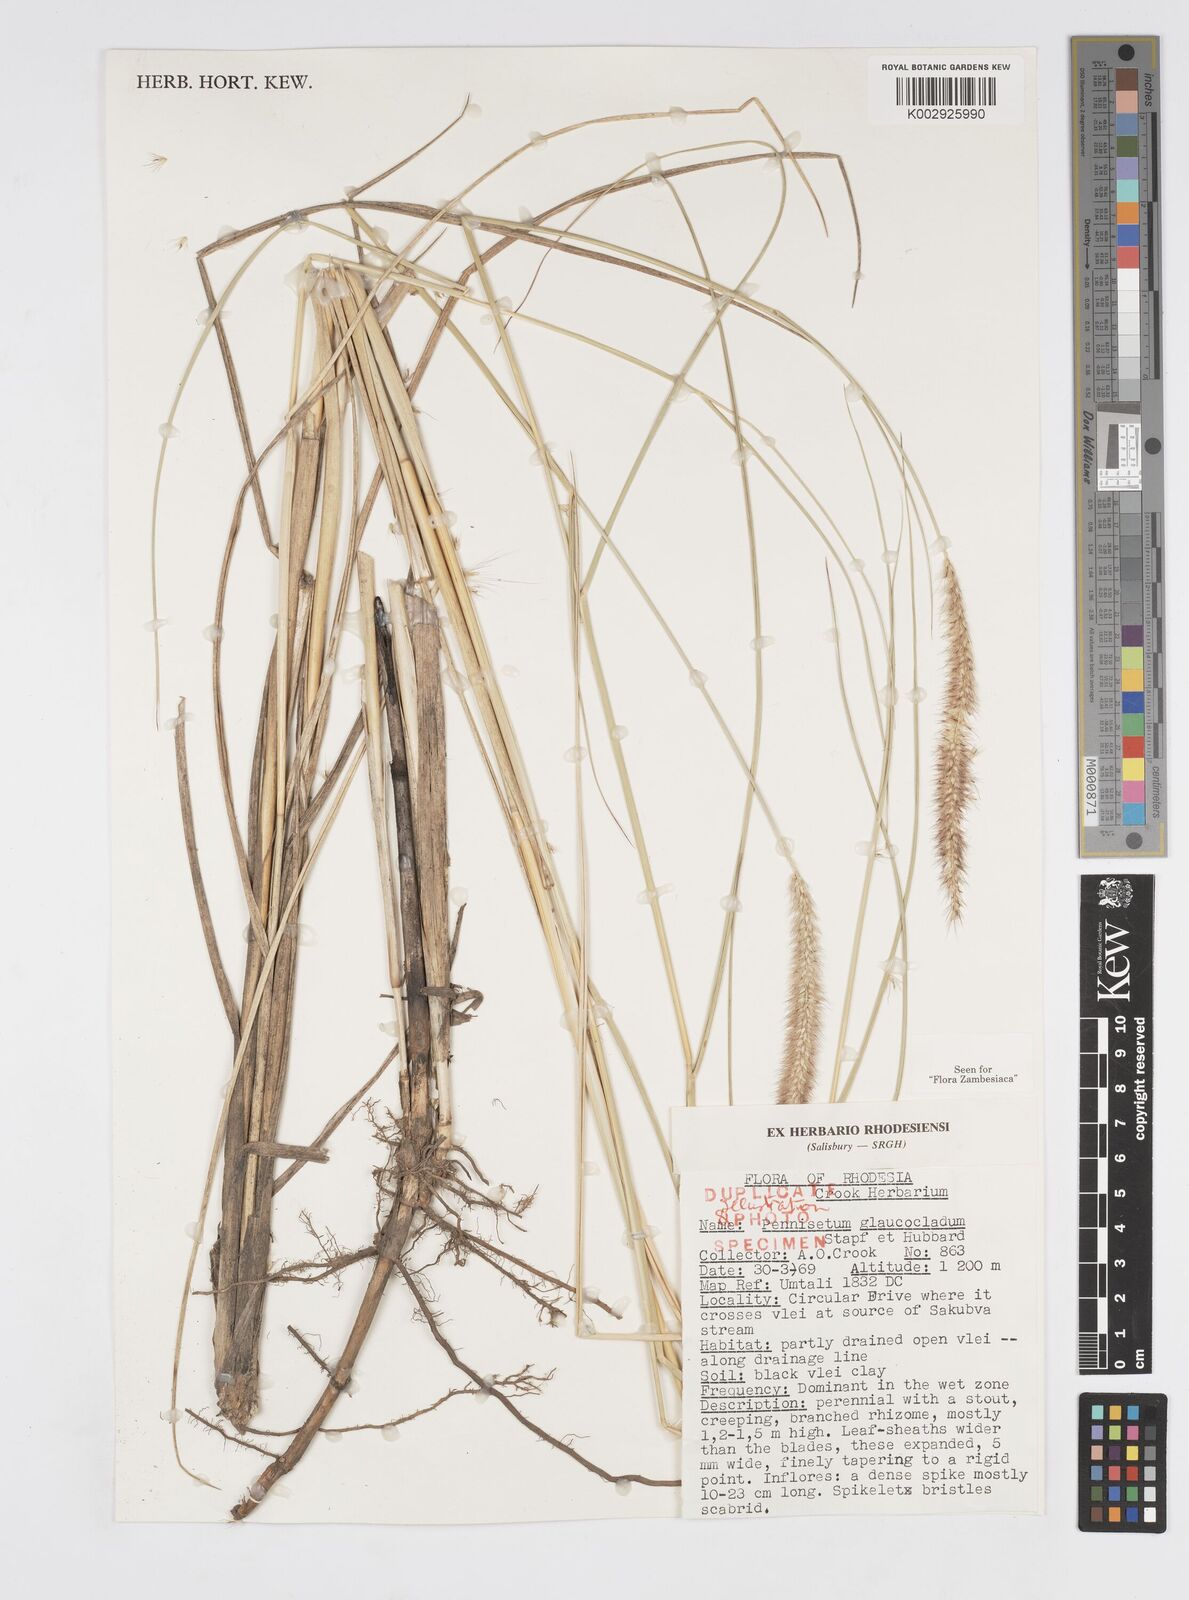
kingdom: Plantae
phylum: Tracheophyta
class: Liliopsida
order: Poales
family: Poaceae
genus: Cenchrus
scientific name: Cenchrus caudatus
